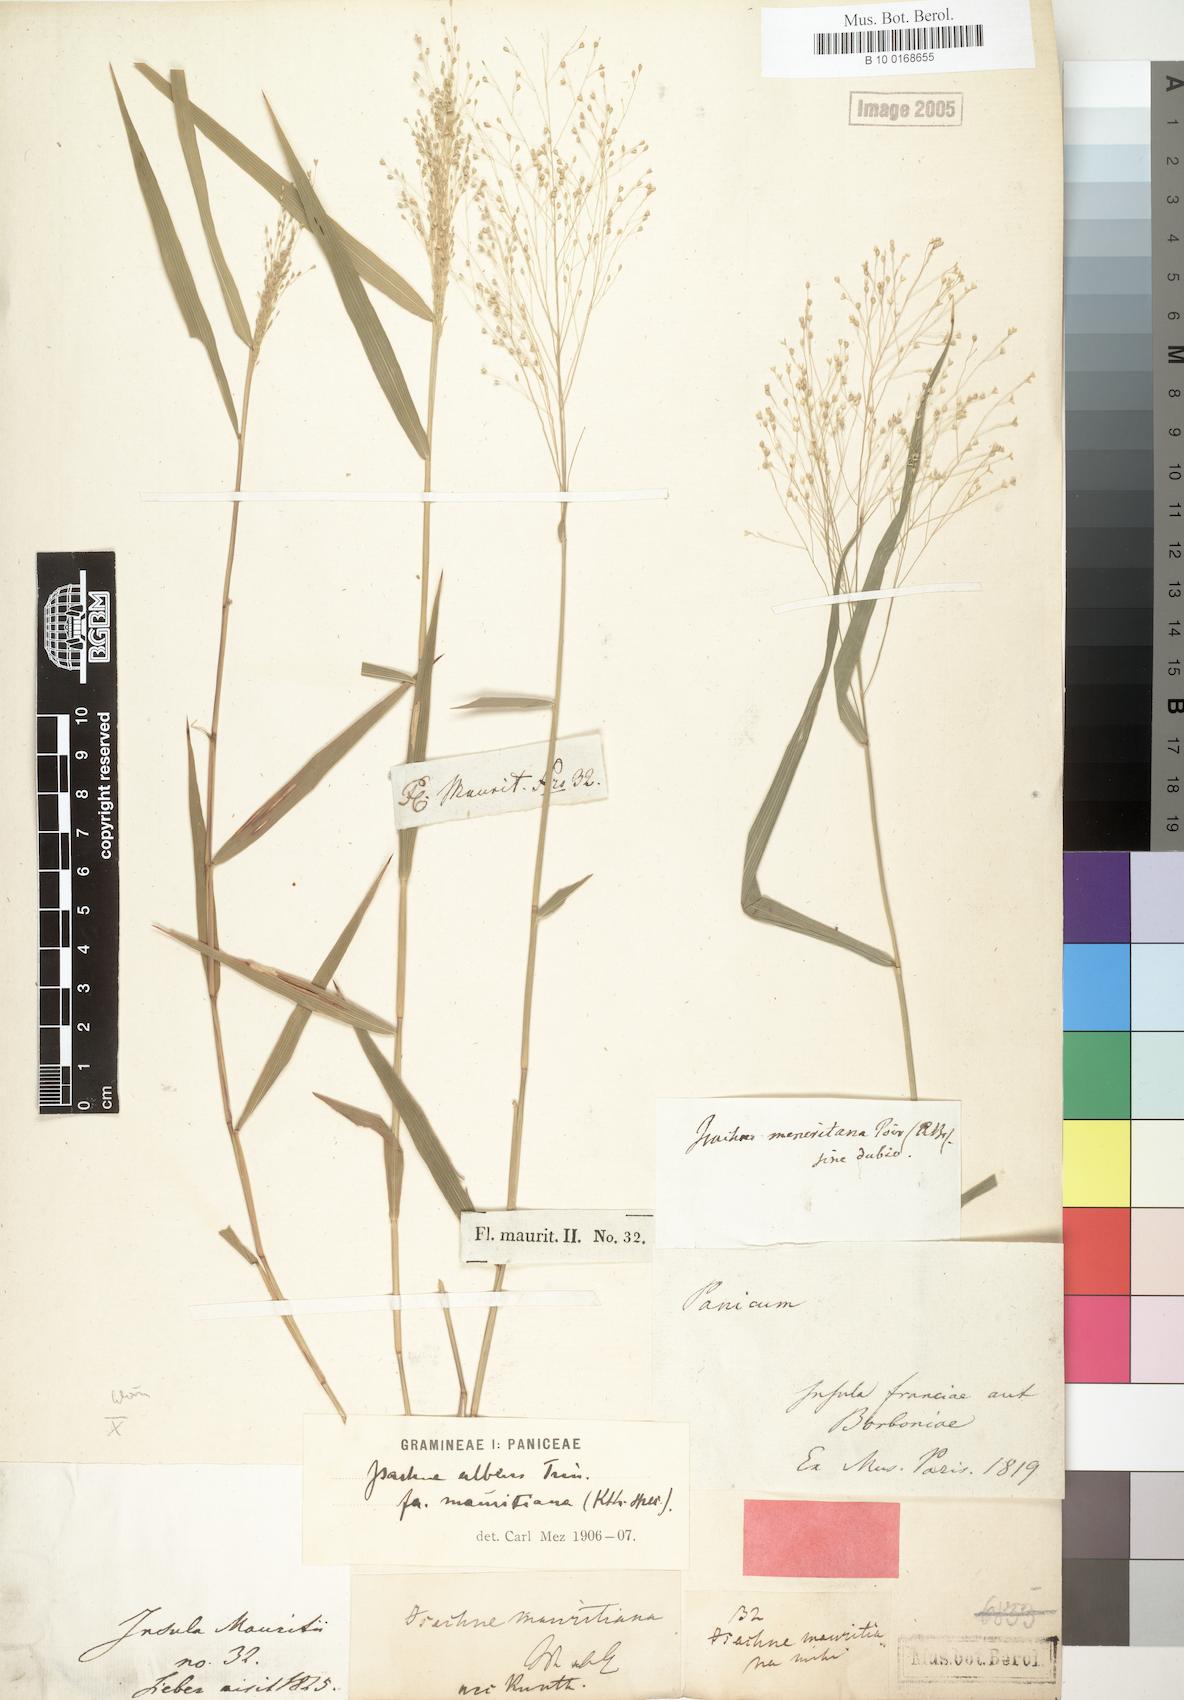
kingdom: Plantae
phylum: Tracheophyta
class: Liliopsida
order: Poales
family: Poaceae
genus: Isachne
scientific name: Isachne mauritiana
